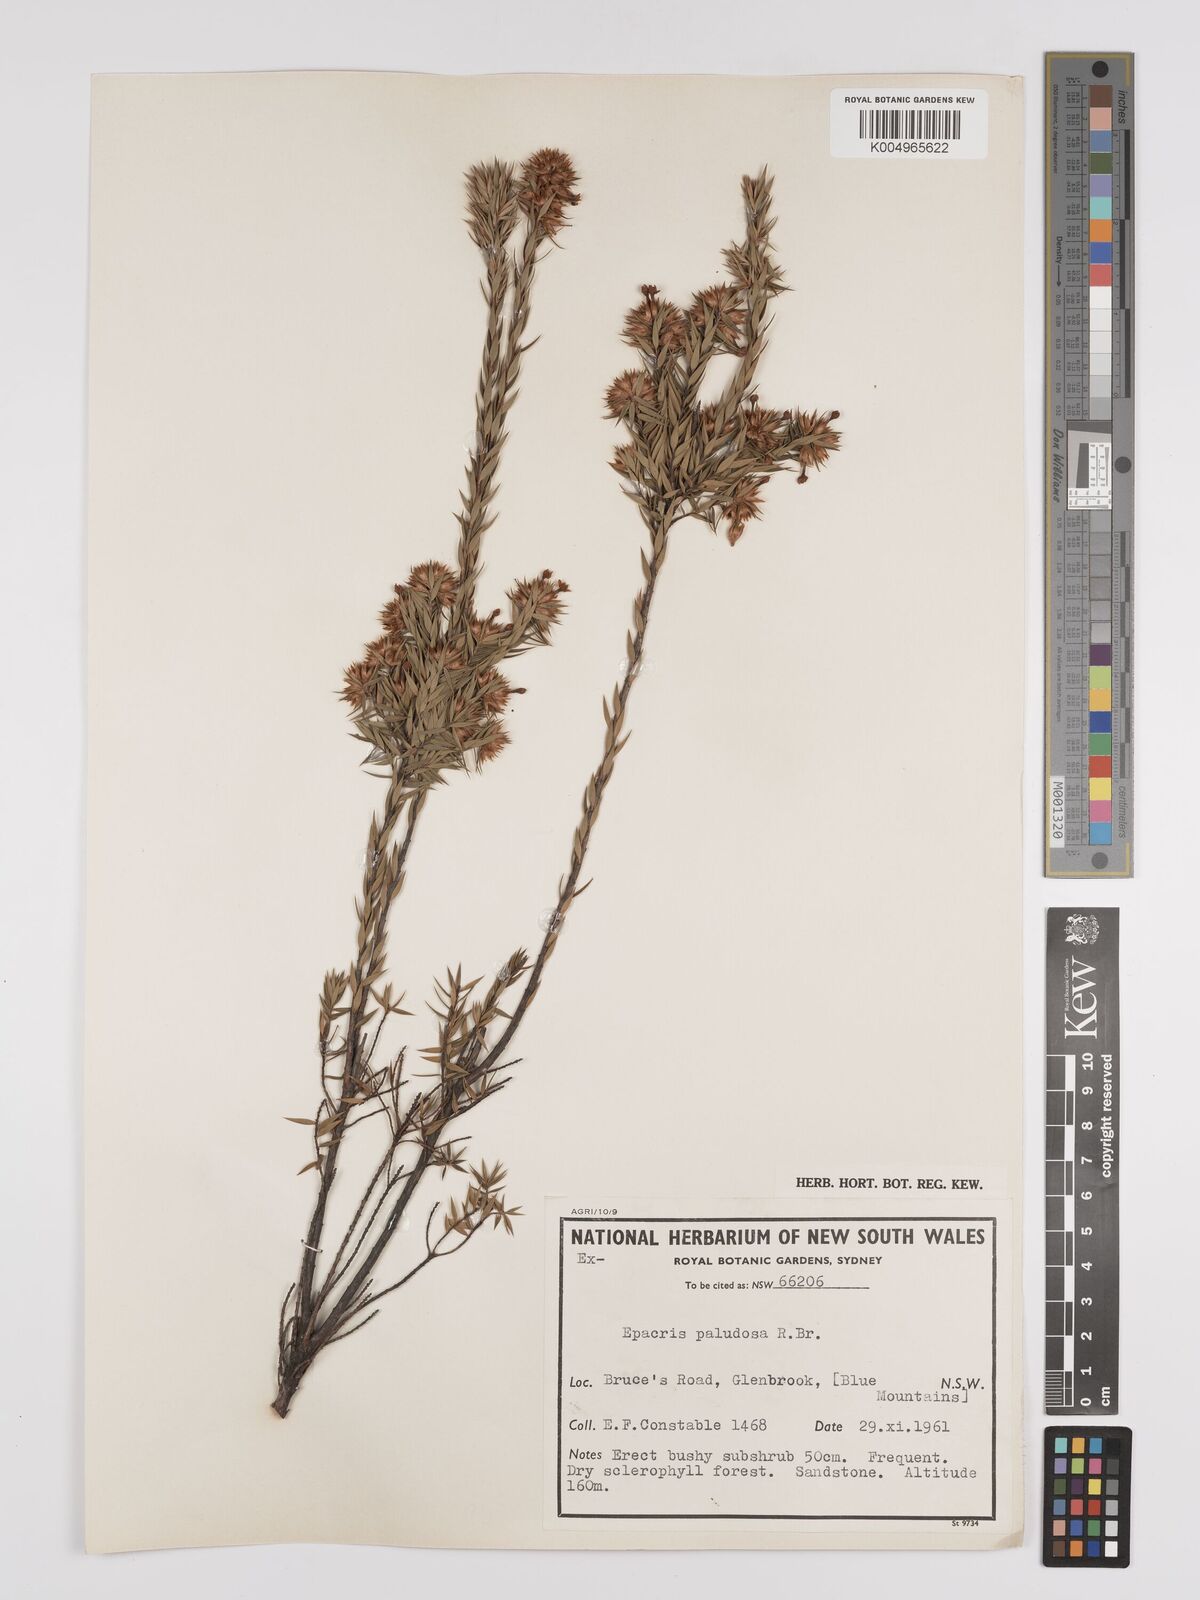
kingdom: Plantae
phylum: Tracheophyta
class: Magnoliopsida
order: Ericales
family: Ericaceae
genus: Epacris
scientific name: Epacris paludosa
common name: Swamp-heath
